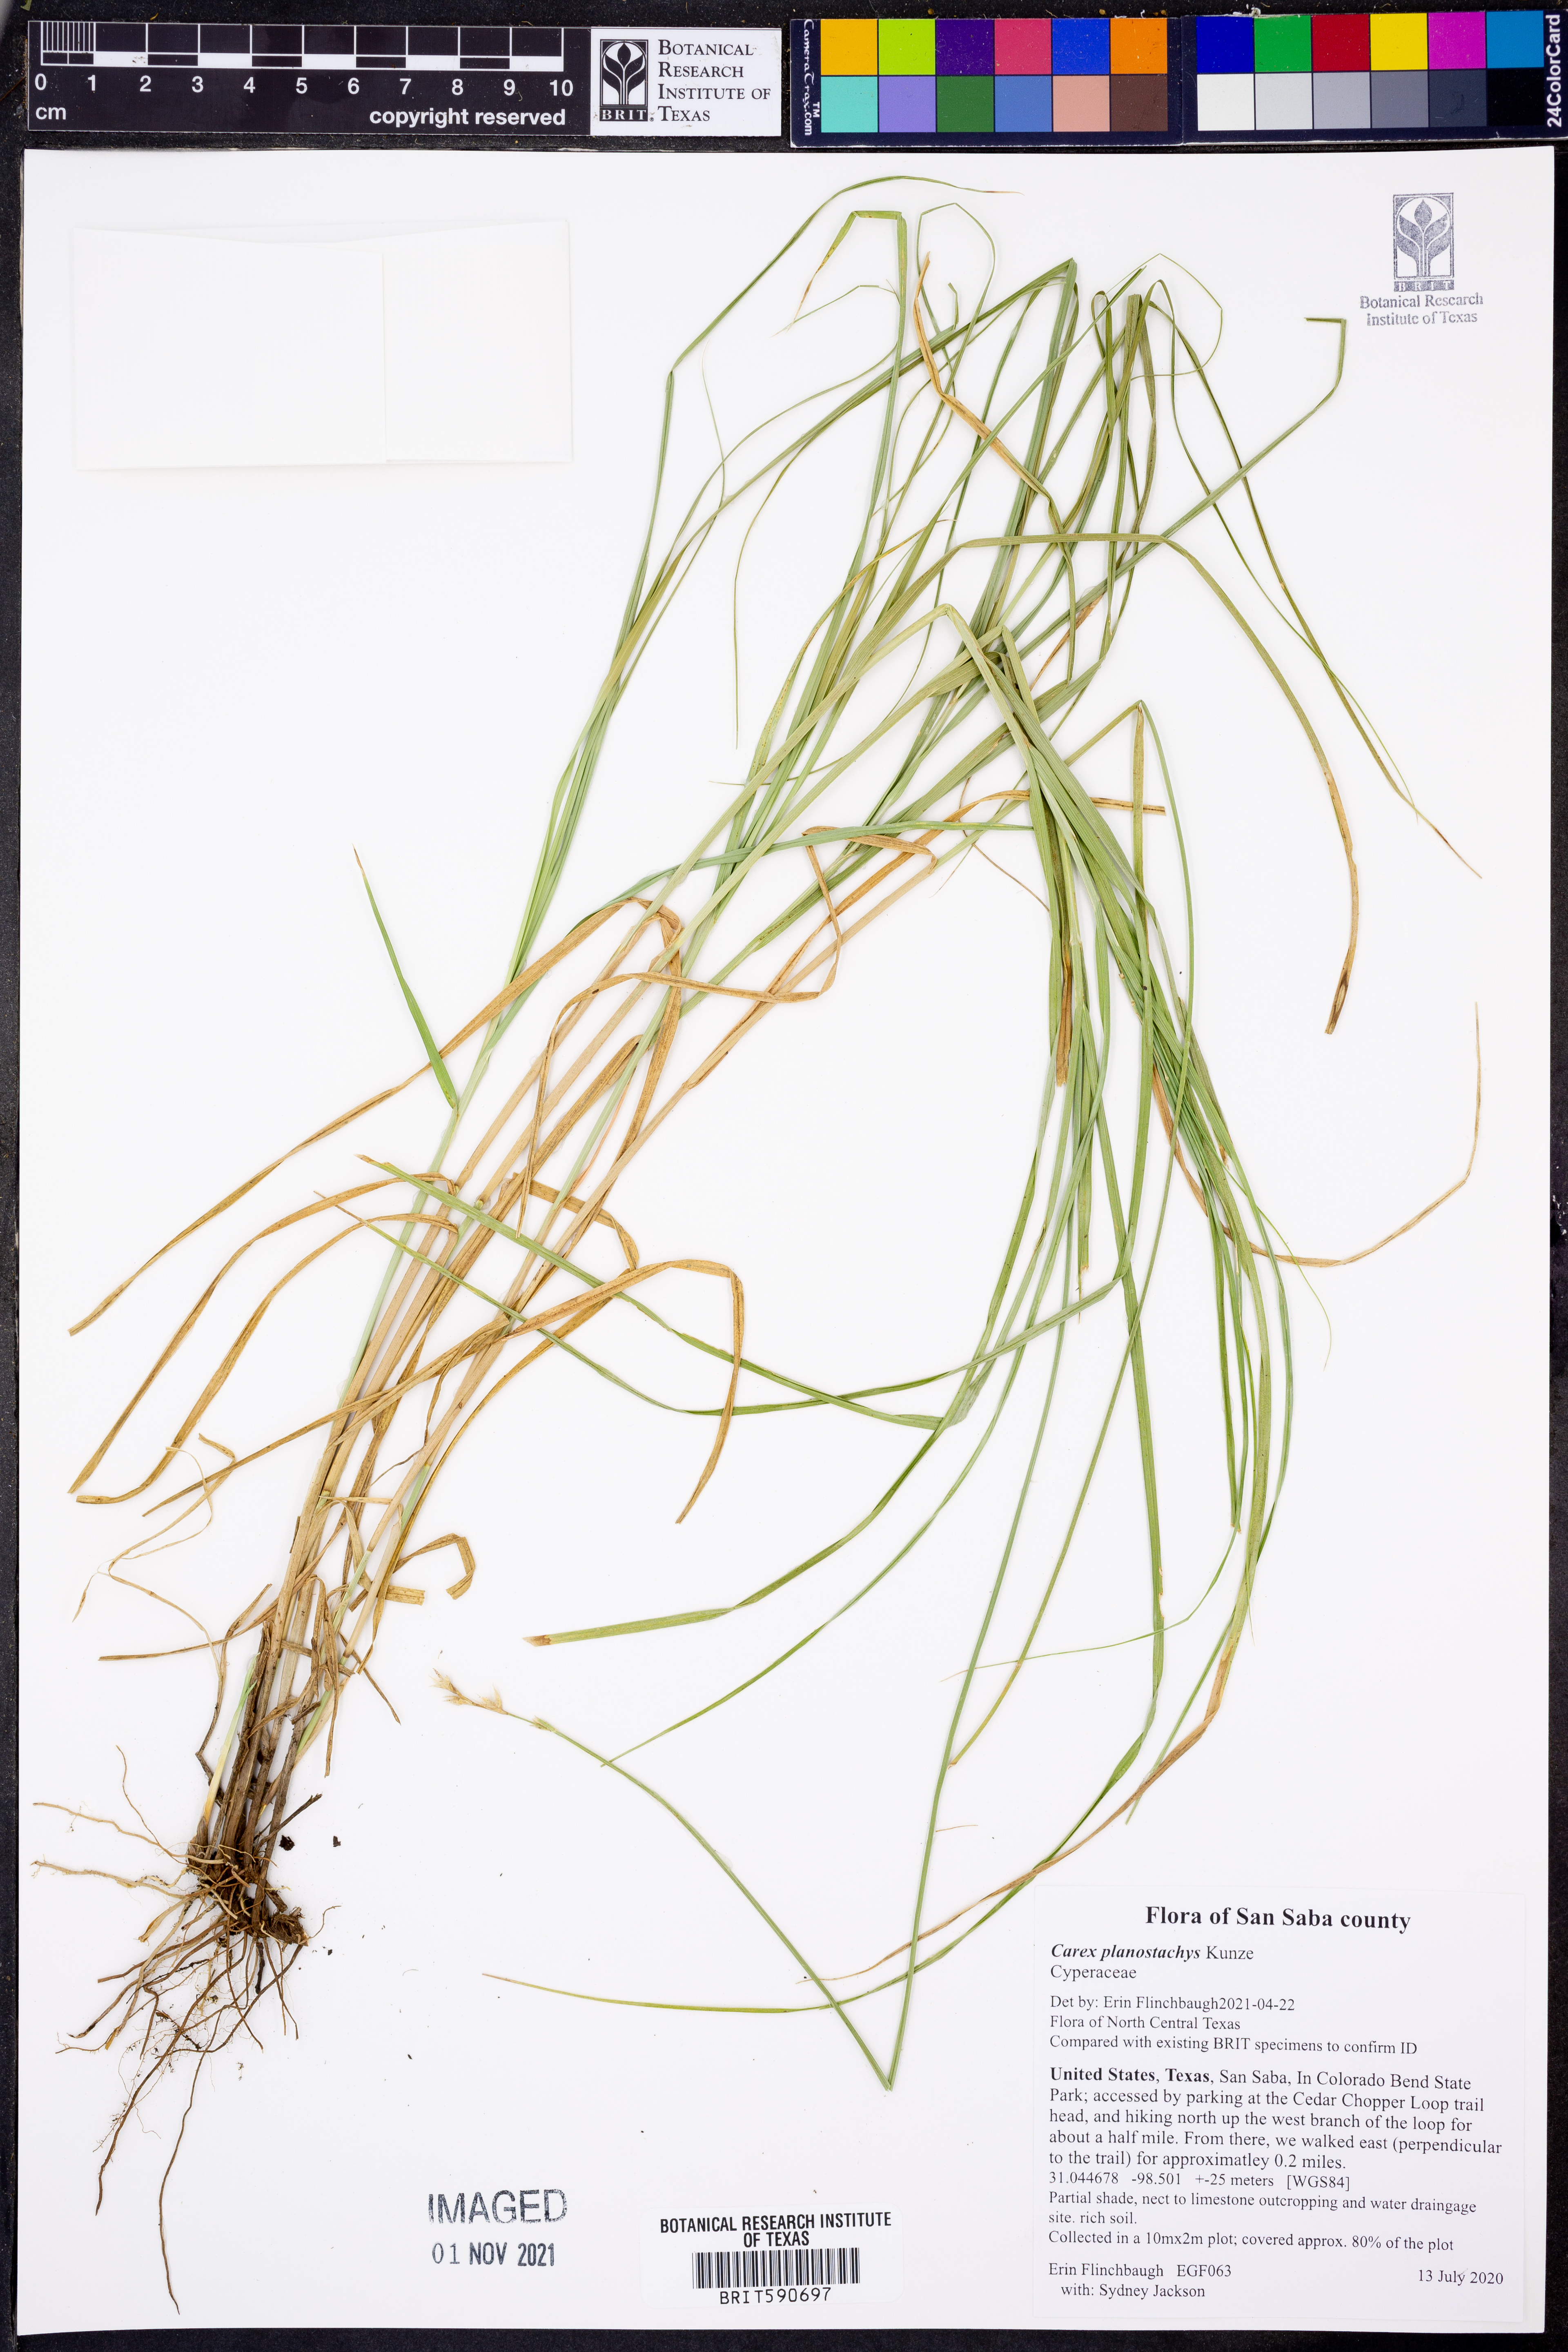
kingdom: Plantae
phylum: Tracheophyta
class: Liliopsida
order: Poales
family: Cyperaceae
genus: Carex
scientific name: Carex planostachys
